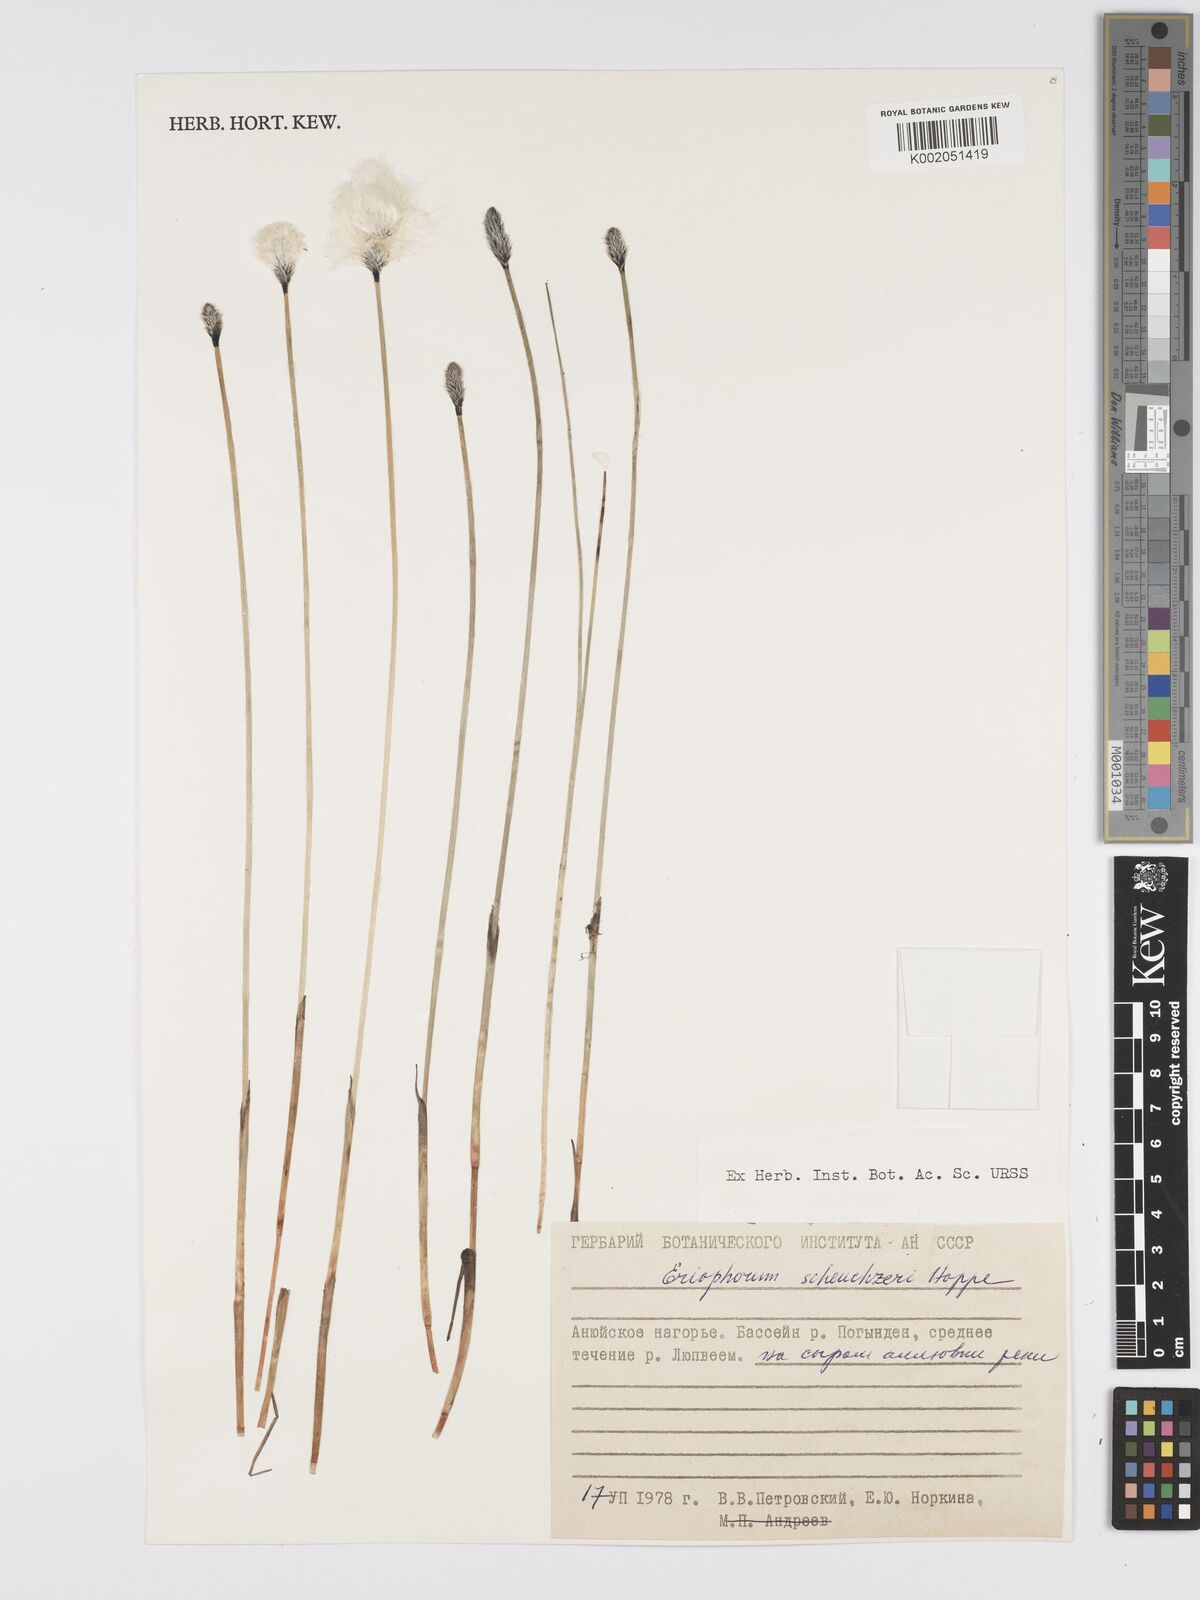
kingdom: Plantae
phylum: Tracheophyta
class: Liliopsida
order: Poales
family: Cyperaceae
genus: Eriophorum
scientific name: Eriophorum scheuchzeri
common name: Scheuchzer's cottongrass
